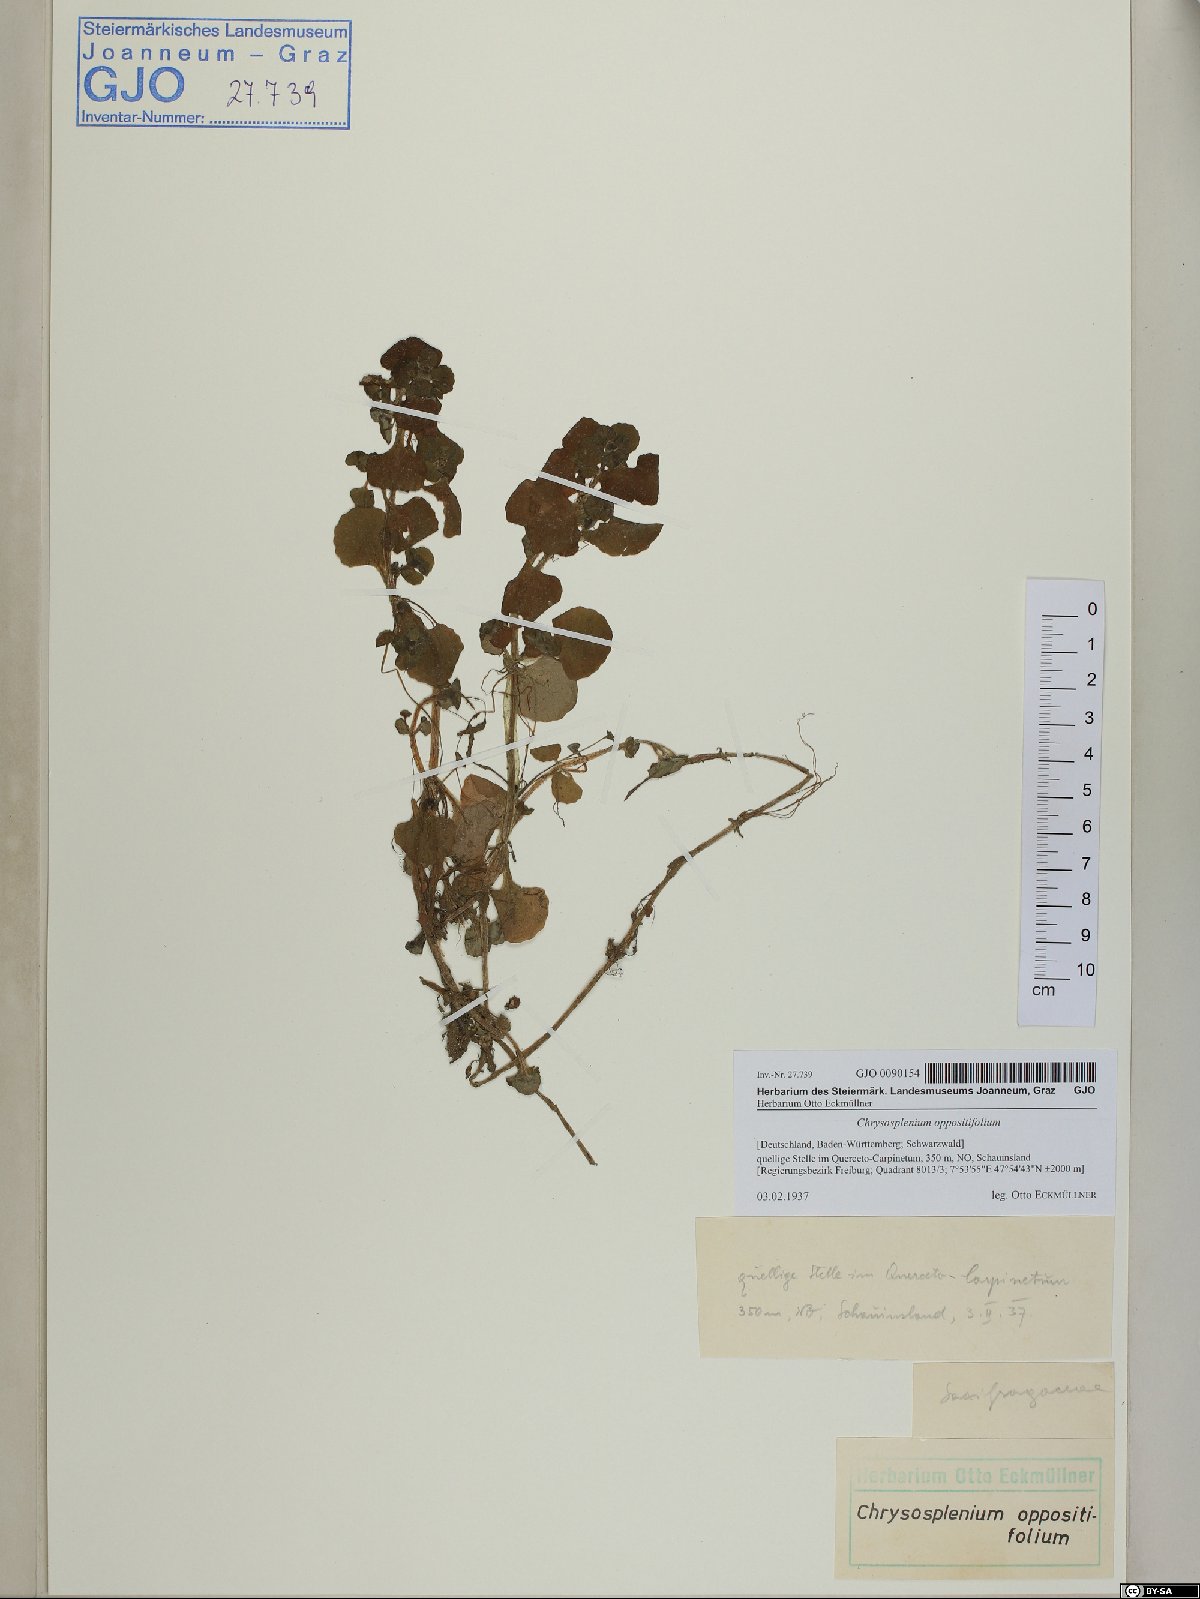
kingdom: Plantae
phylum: Tracheophyta
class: Magnoliopsida
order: Saxifragales
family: Saxifragaceae
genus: Chrysosplenium
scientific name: Chrysosplenium oppositifolium
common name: Opposite-leaved golden-saxifrage
